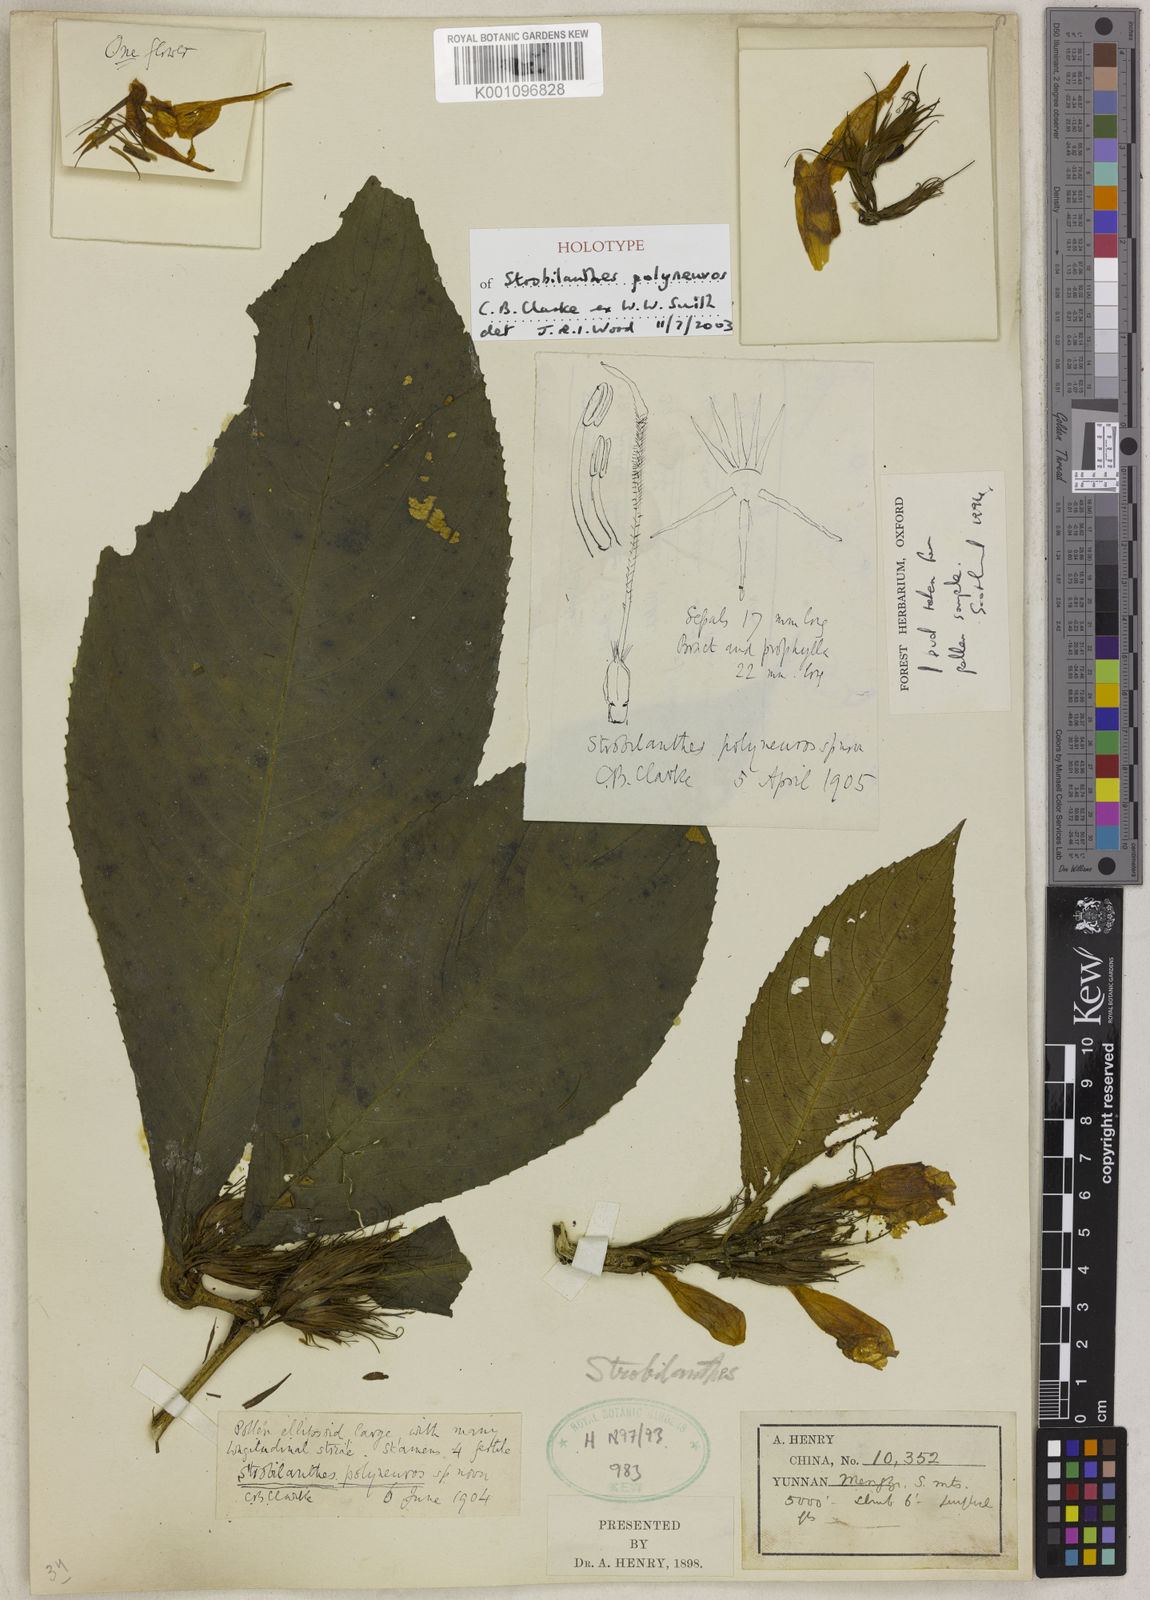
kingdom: Plantae
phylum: Tracheophyta
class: Magnoliopsida
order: Lamiales
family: Acanthaceae
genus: Strobilanthes
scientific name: Strobilanthes polyneuros
